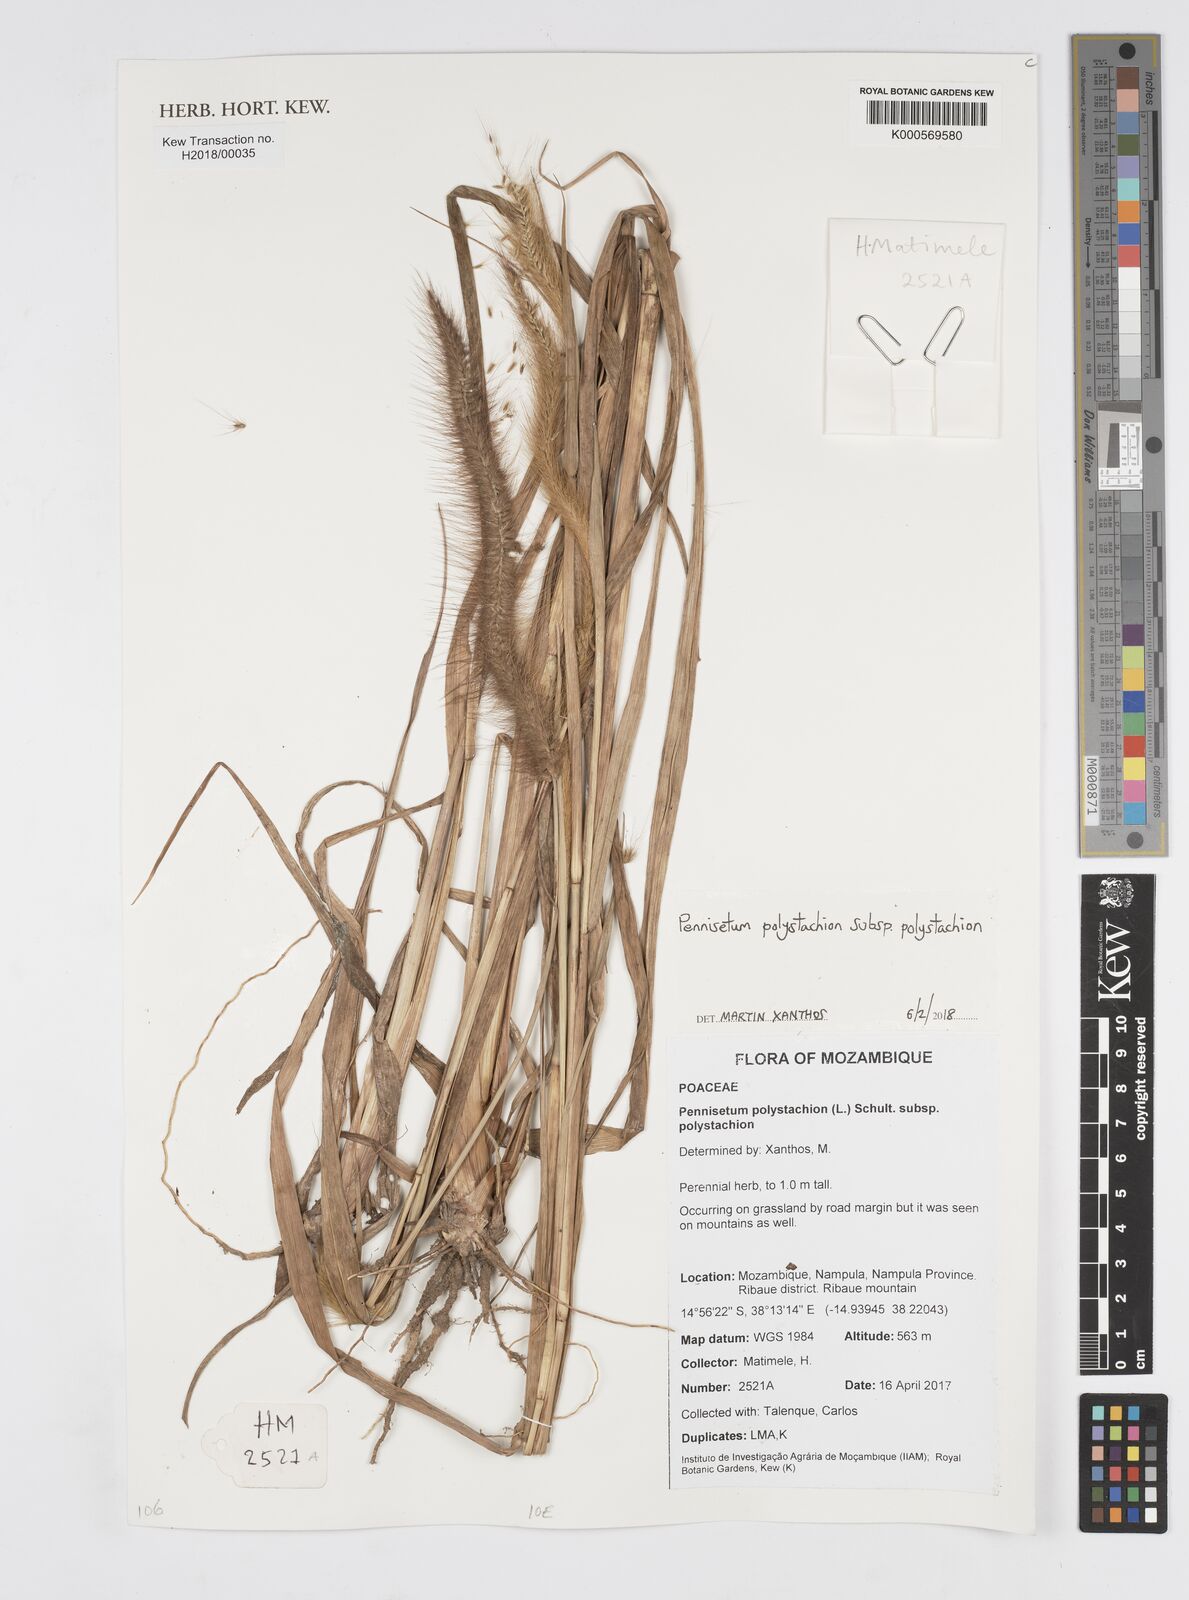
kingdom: Plantae
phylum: Tracheophyta
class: Liliopsida
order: Poales
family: Poaceae
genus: Setaria
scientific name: Setaria parviflora
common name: Knotroot bristle-grass
